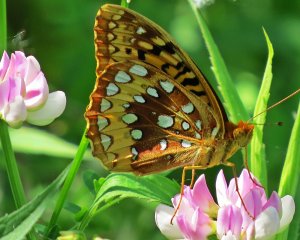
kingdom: Animalia
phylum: Arthropoda
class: Insecta
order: Lepidoptera
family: Nymphalidae
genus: Speyeria
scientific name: Speyeria cybele
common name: Great Spangled Fritillary
